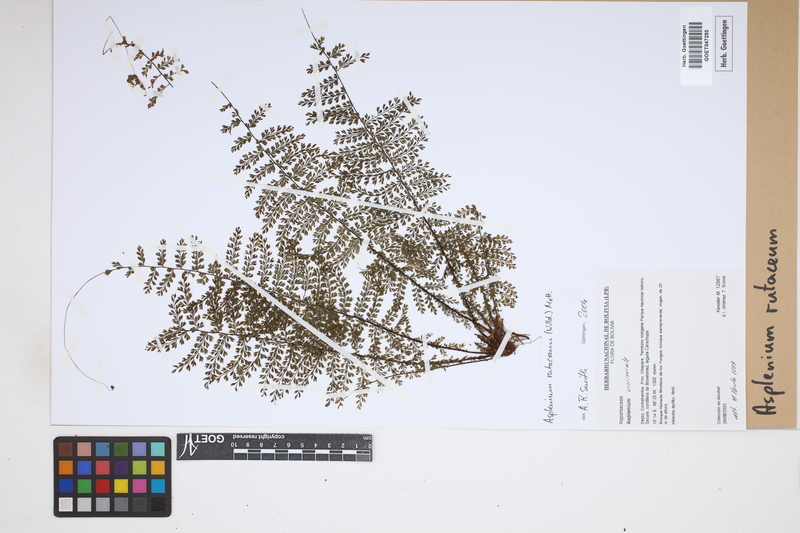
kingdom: Plantae
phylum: Tracheophyta
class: Polypodiopsida
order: Polypodiales
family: Aspleniaceae
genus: Asplenium
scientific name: Asplenium rutaceum
